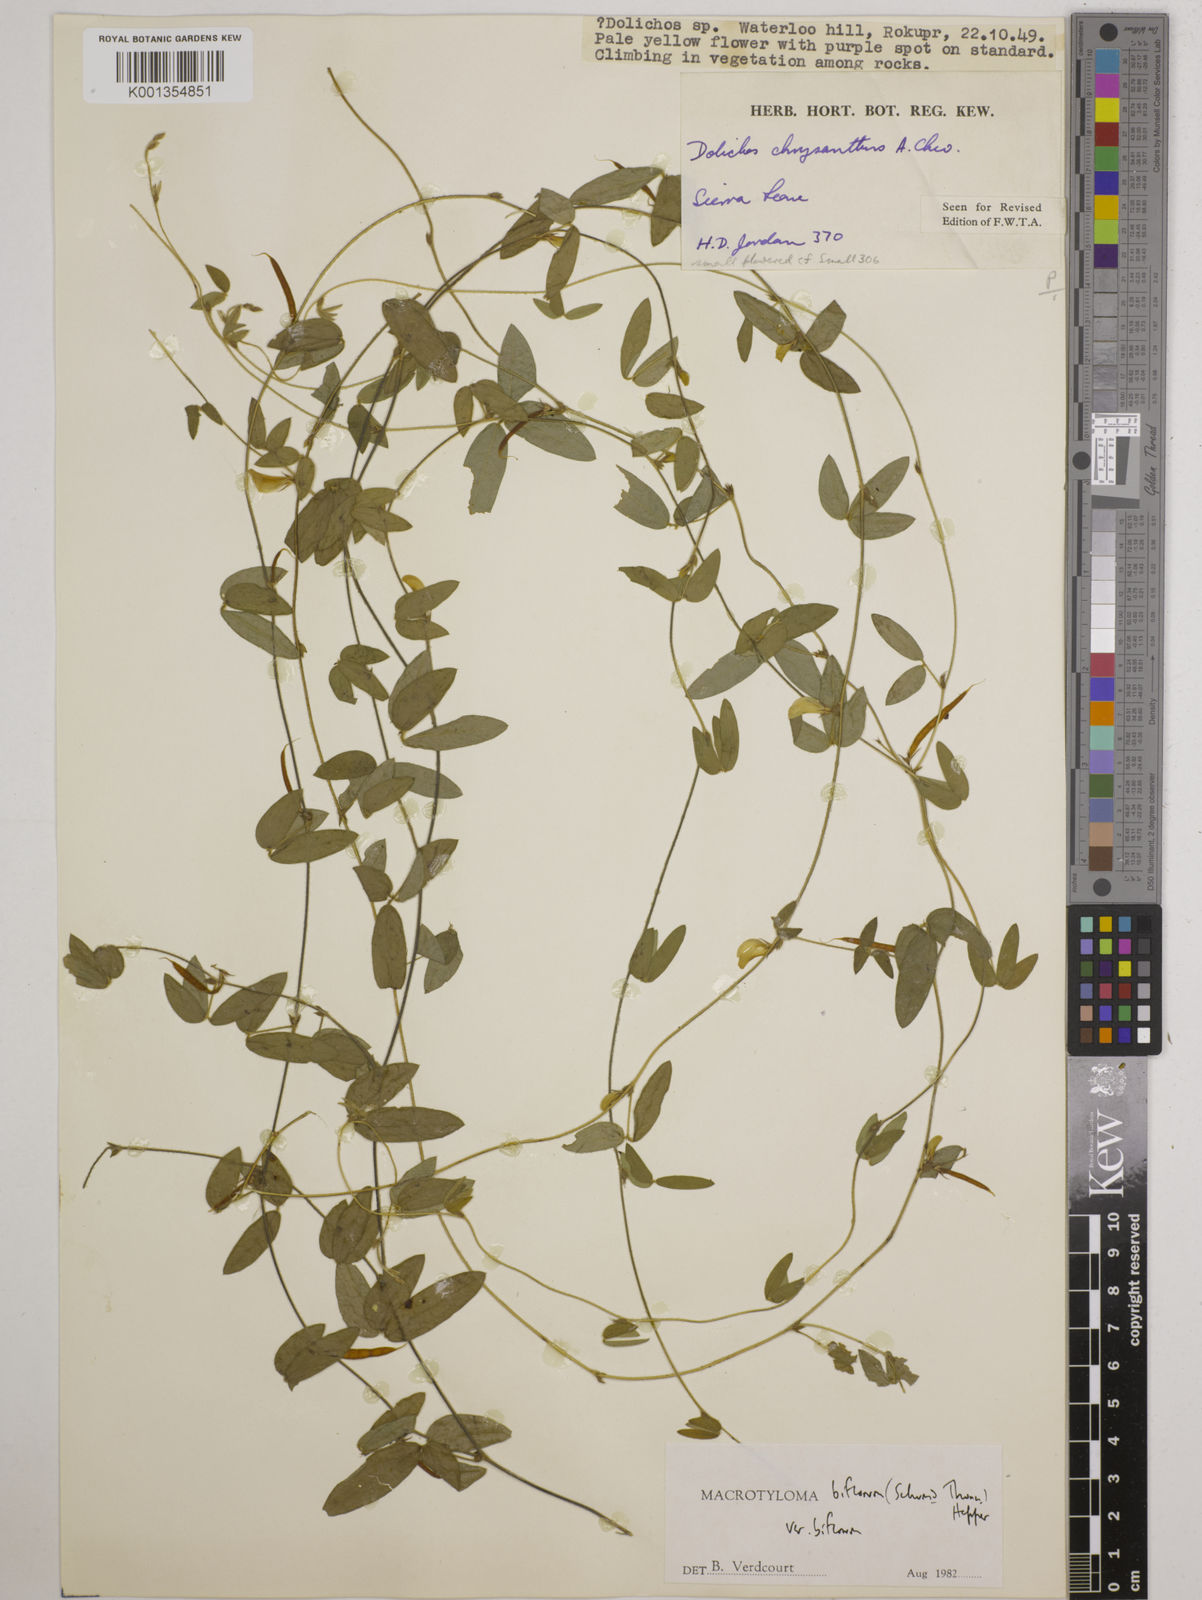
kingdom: Plantae
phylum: Tracheophyta
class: Magnoliopsida
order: Fabales
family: Fabaceae
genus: Macrotyloma
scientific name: Macrotyloma biflorum
